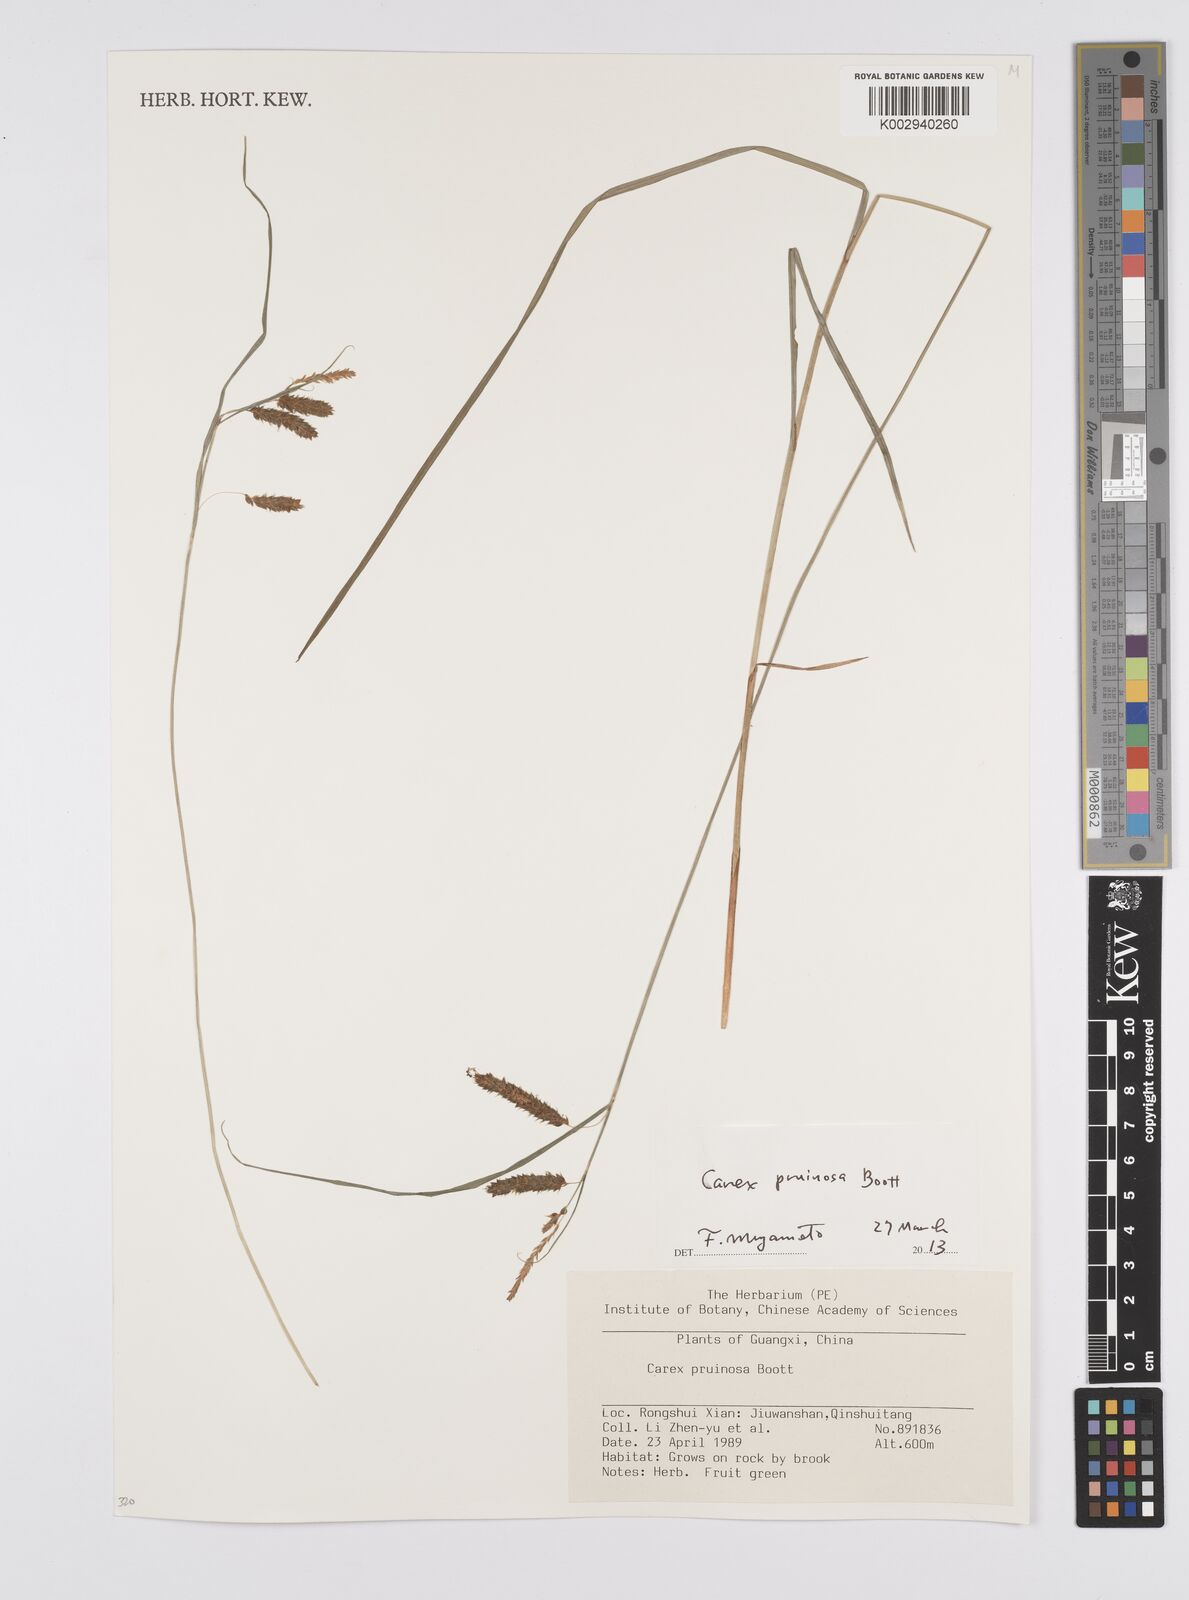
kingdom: Plantae
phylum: Tracheophyta
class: Liliopsida
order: Poales
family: Cyperaceae
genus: Carex
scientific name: Carex pruinosa
